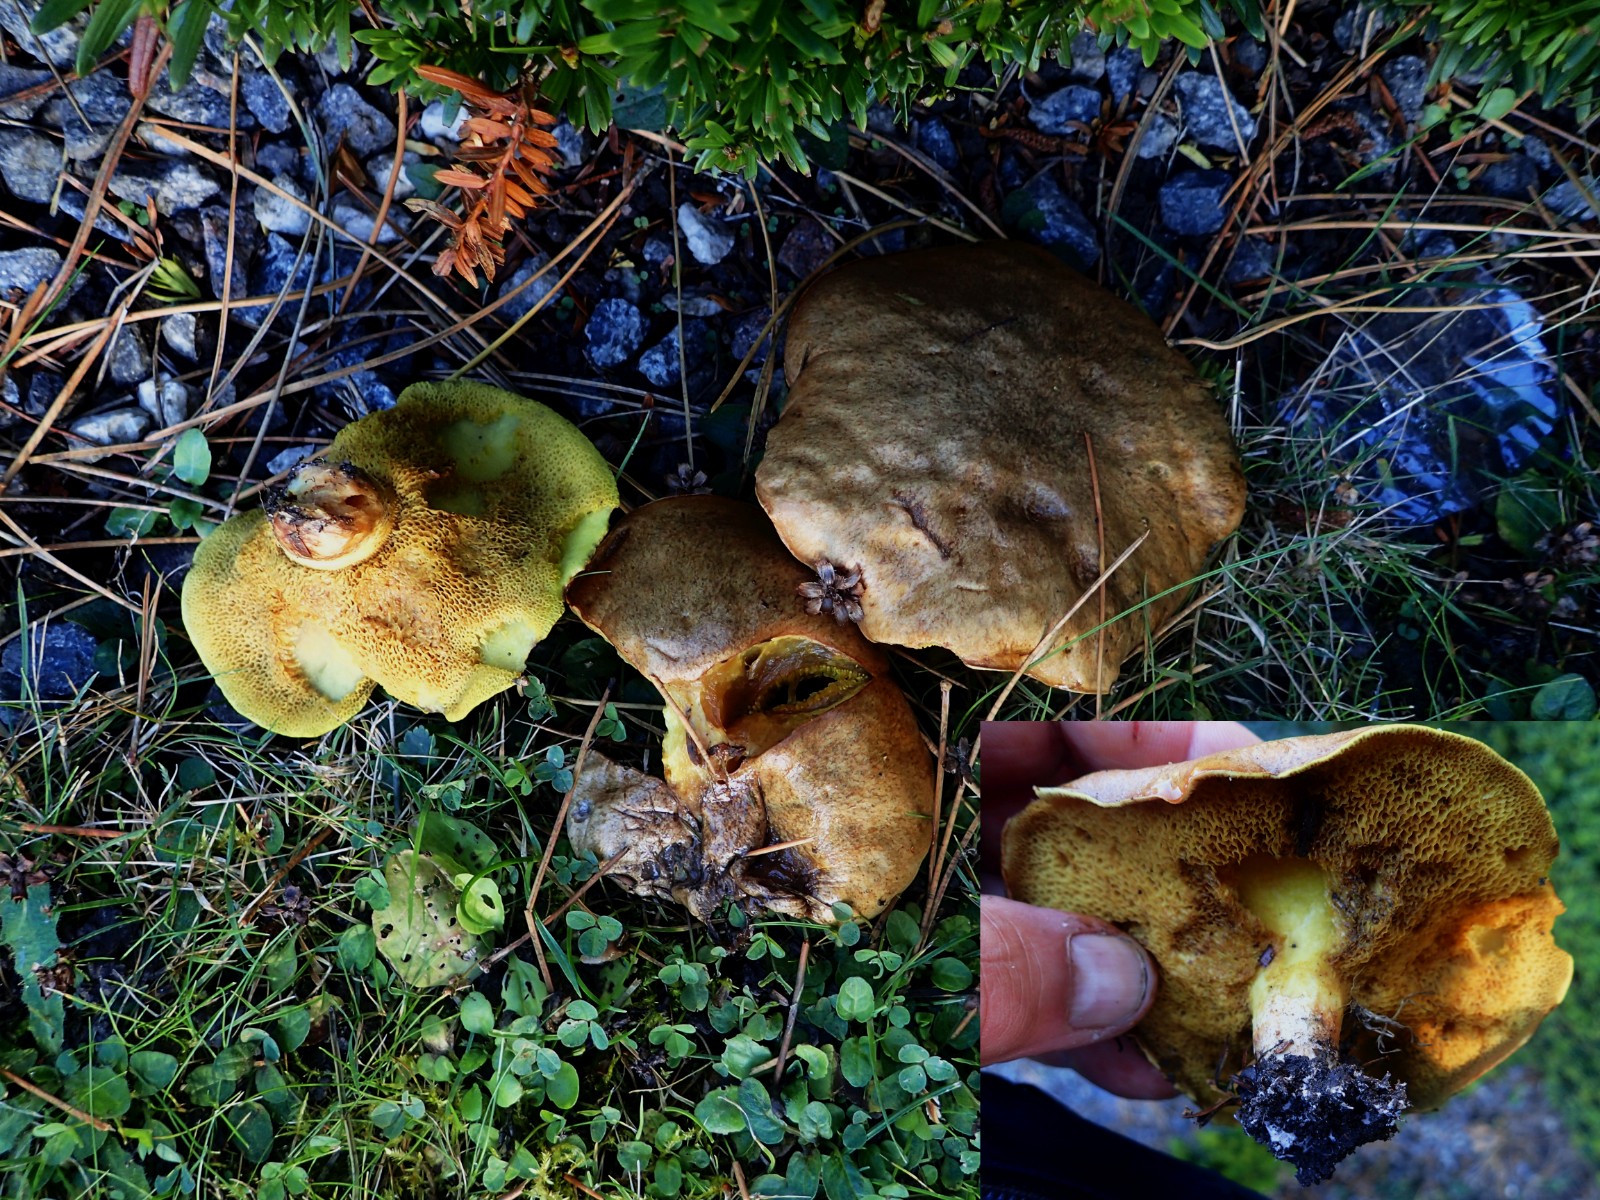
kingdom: Fungi
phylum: Basidiomycota
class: Agaricomycetes
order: Boletales
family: Suillaceae
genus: Suillus
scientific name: Suillus collinitus
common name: rosafodet slimrørhat
